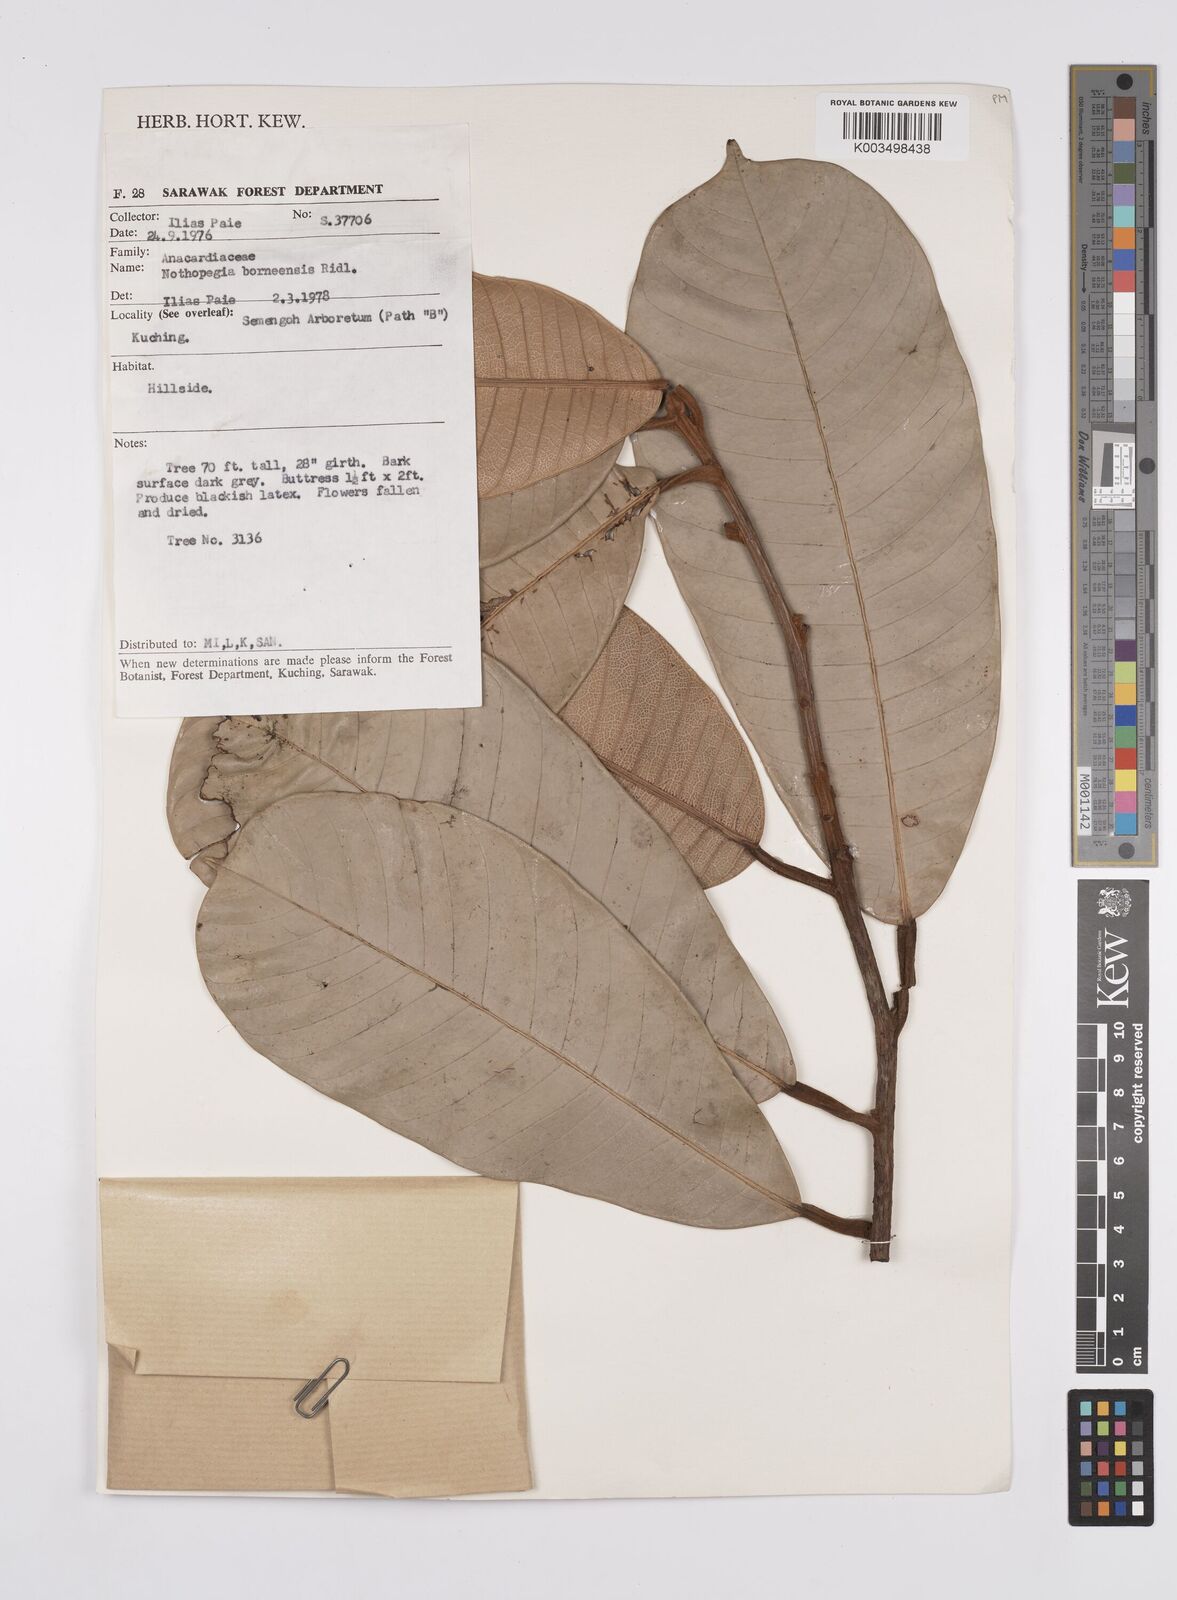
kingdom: Plantae
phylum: Tracheophyta
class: Magnoliopsida
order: Sapindales
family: Anacardiaceae
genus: Melanochyla
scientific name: Melanochyla borneensis
